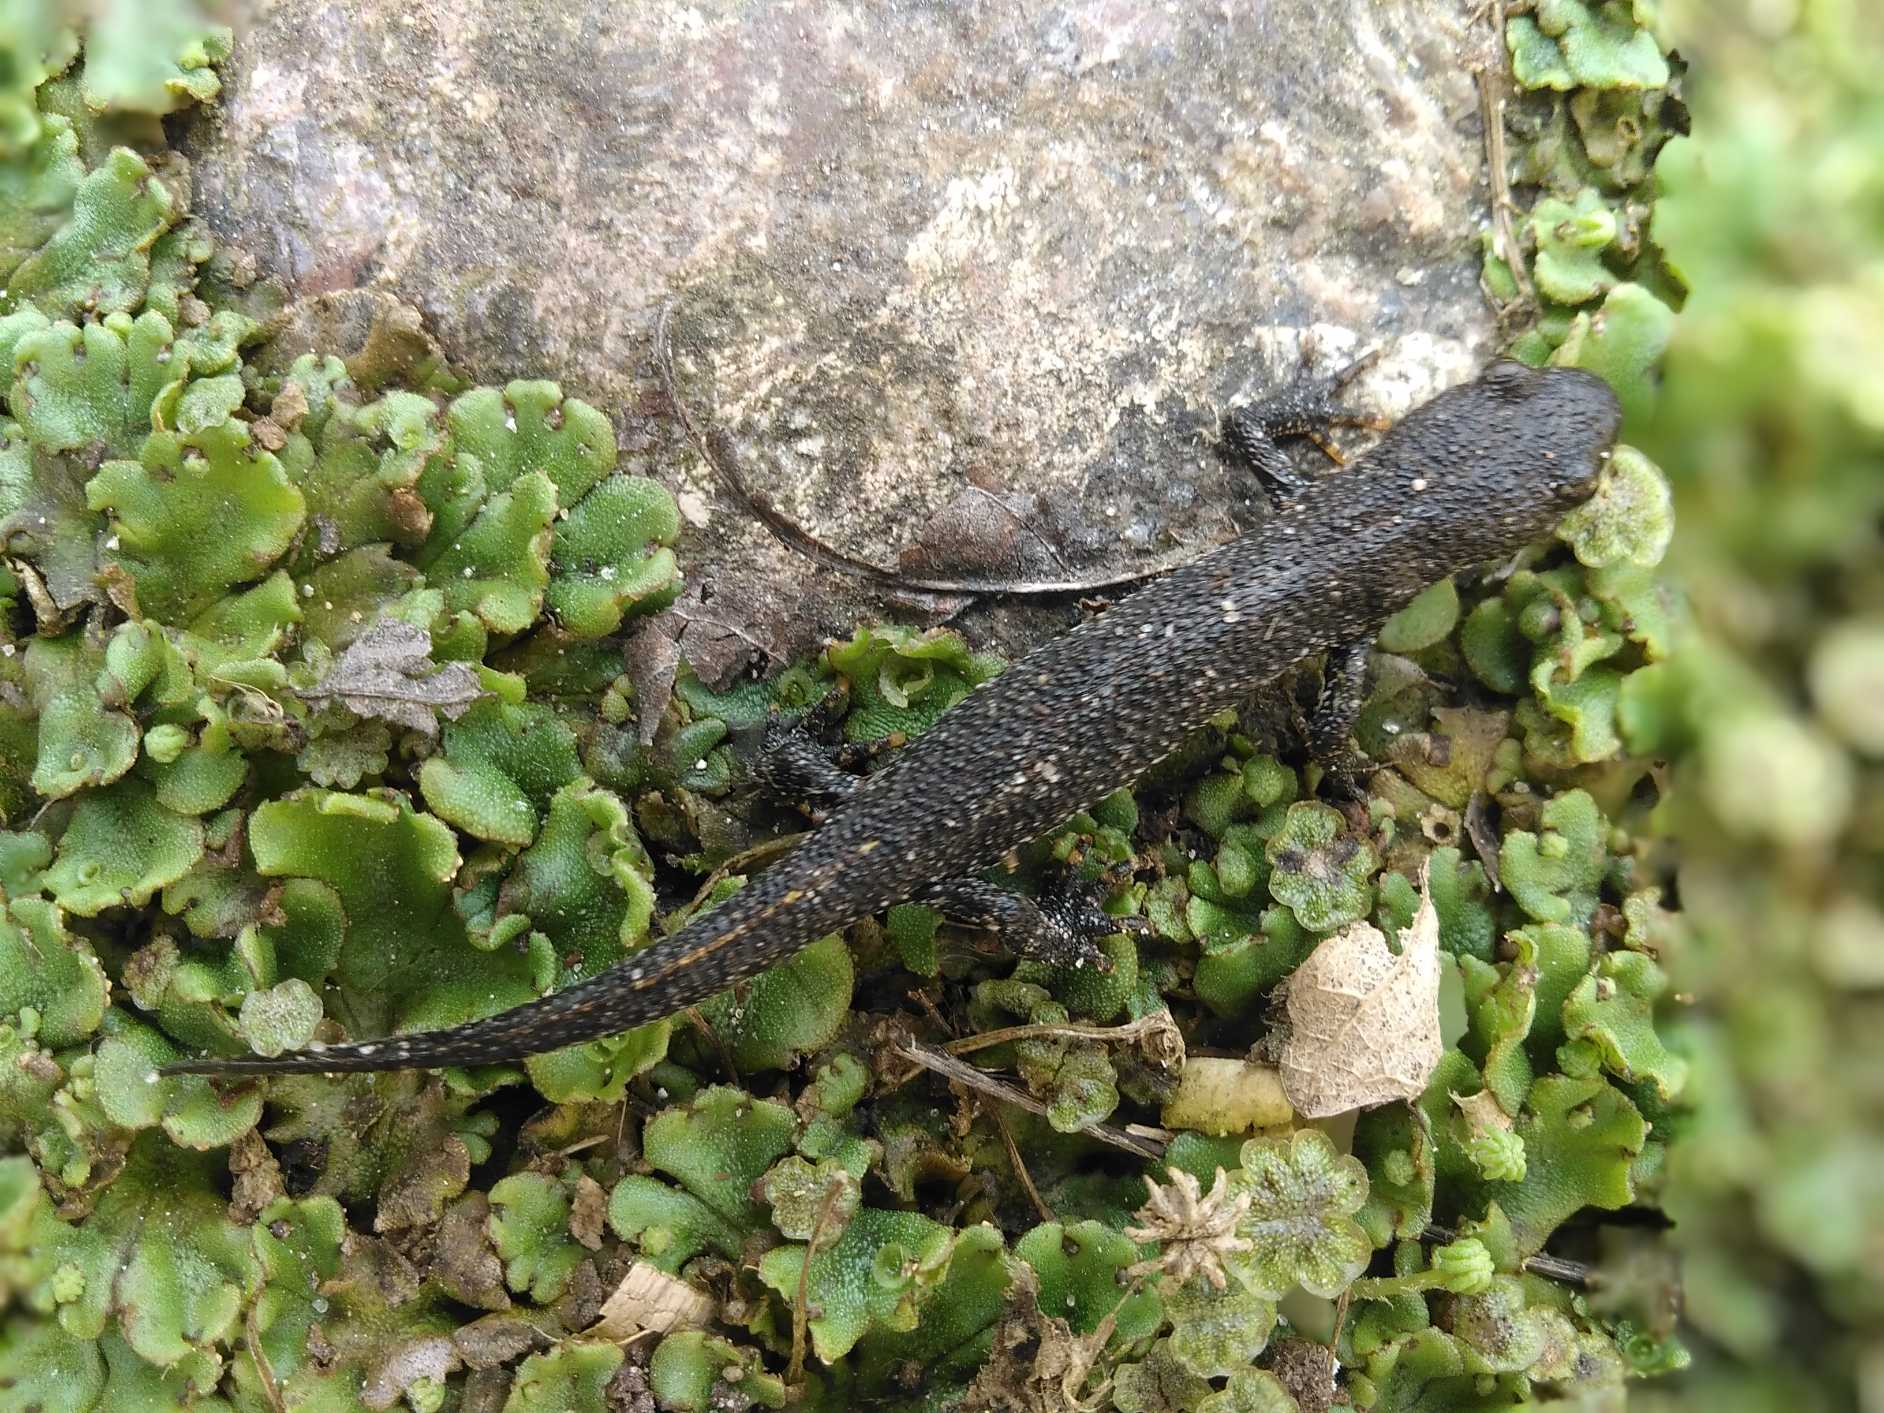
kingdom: Animalia
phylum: Chordata
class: Amphibia
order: Caudata
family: Salamandridae
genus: Triturus
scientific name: Triturus cristatus
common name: Stor vandsalamander
